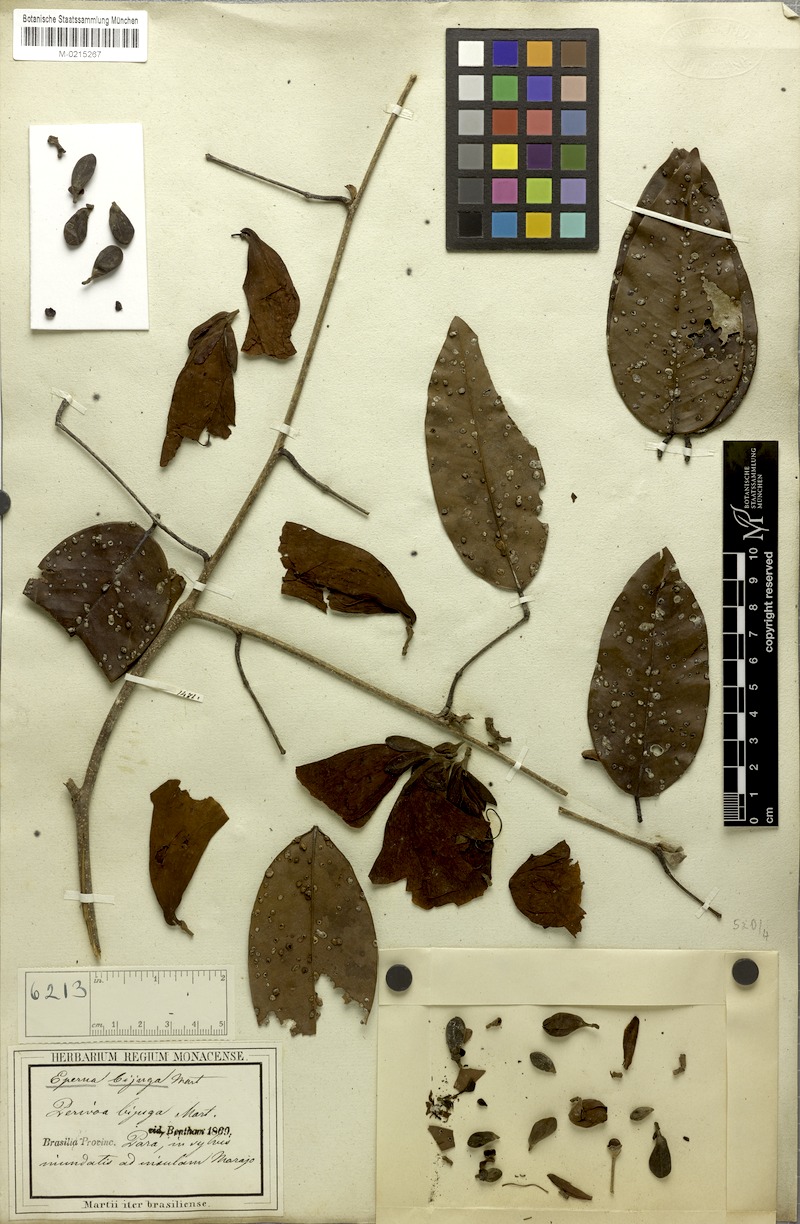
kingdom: Plantae
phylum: Tracheophyta
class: Magnoliopsida
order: Fabales
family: Fabaceae
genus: Eperua
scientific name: Eperua bijuga
